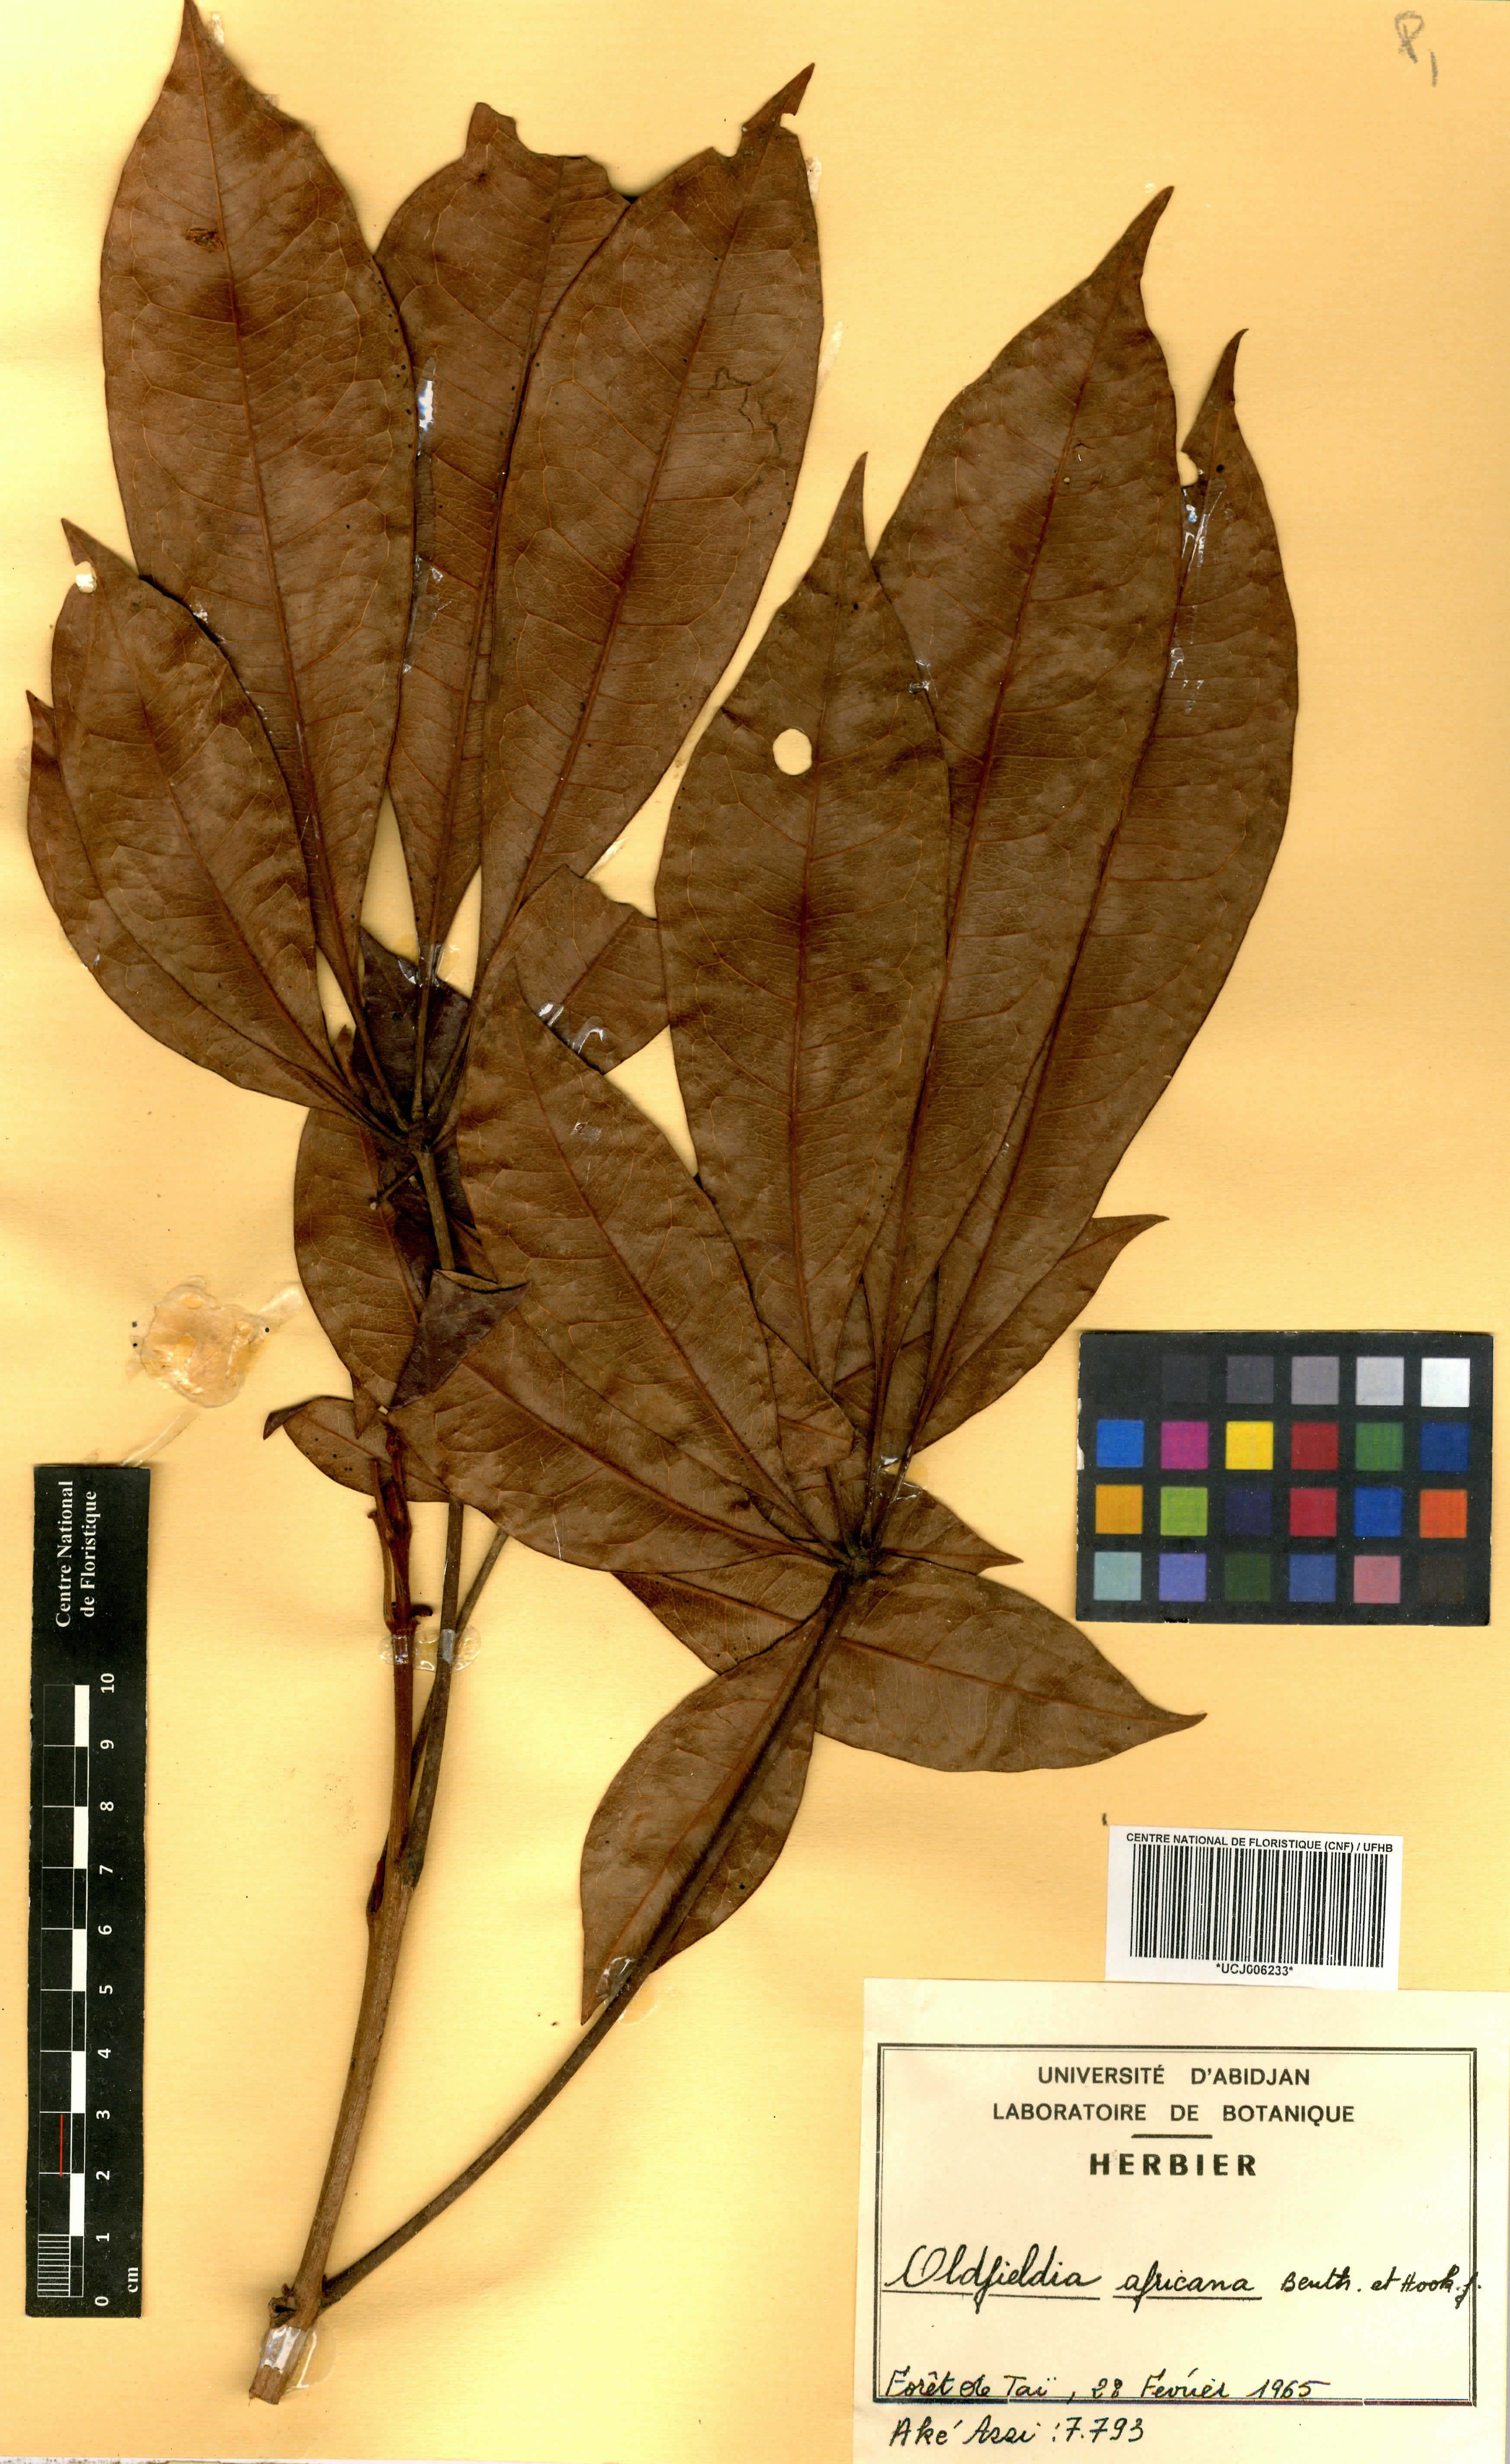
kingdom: Plantae
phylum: Tracheophyta
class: Magnoliopsida
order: Malpighiales
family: Picrodendraceae
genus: Oldfieldia
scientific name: Oldfieldia africana
